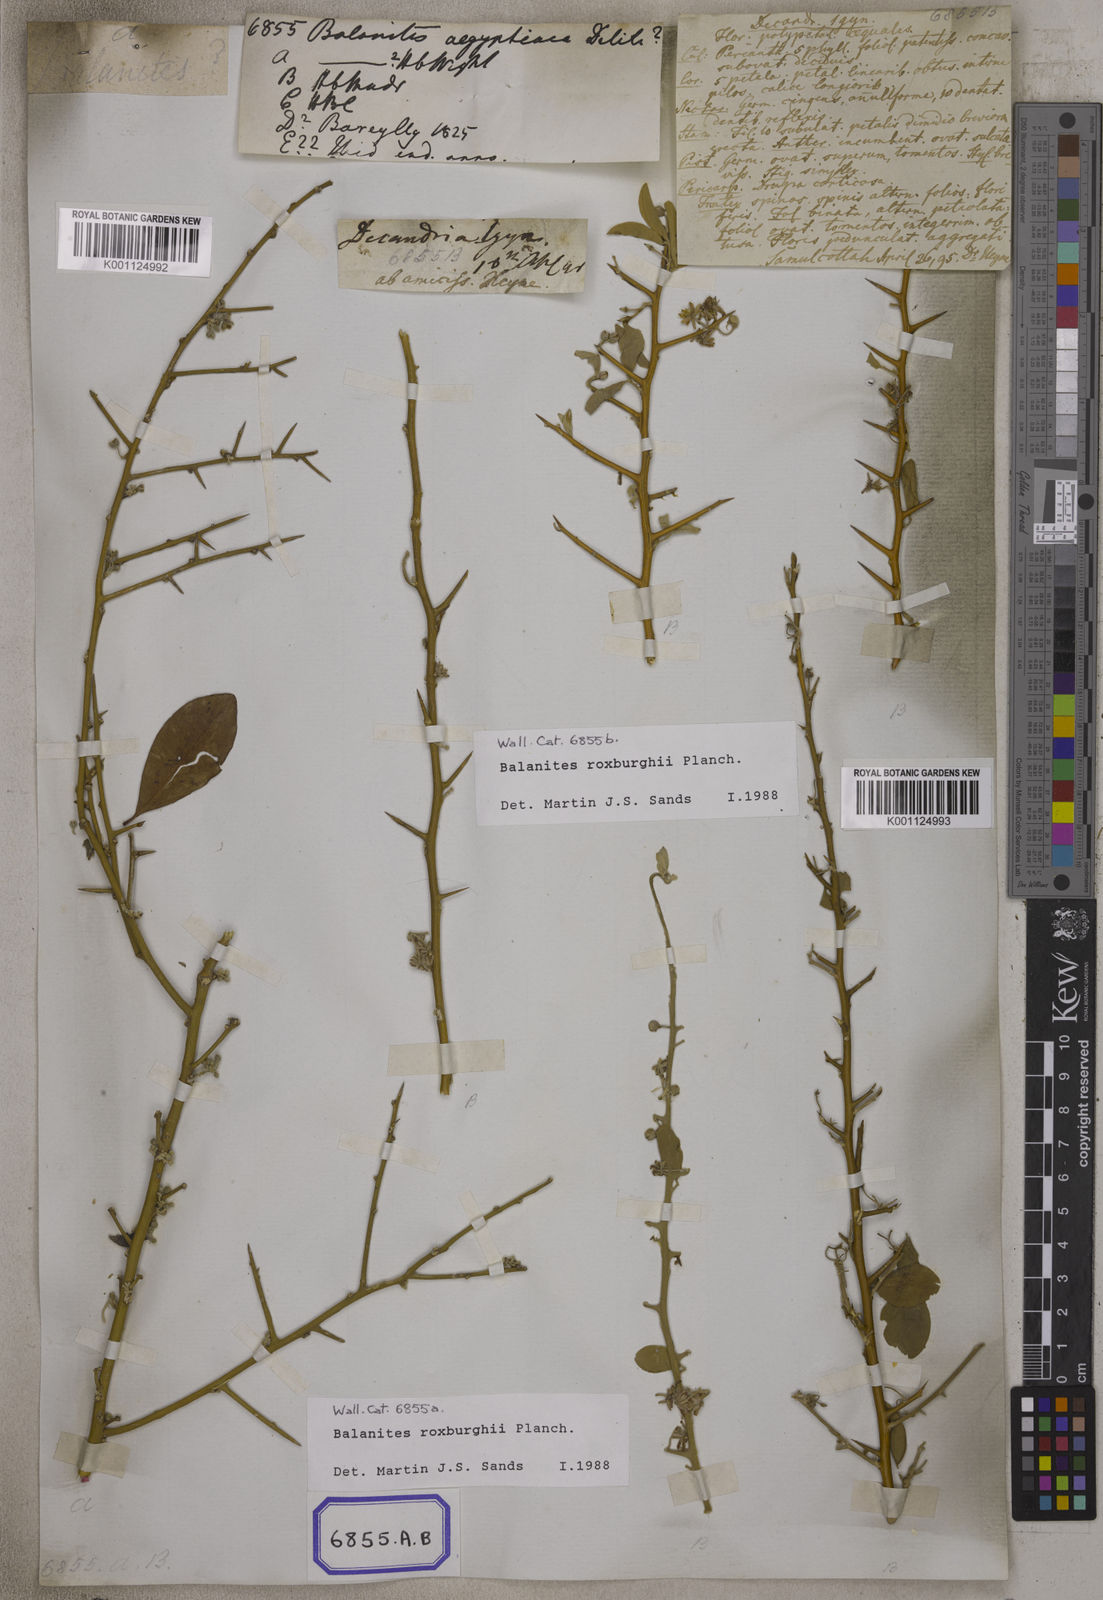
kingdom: Plantae
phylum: Tracheophyta
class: Magnoliopsida
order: Zygophyllales
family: Zygophyllaceae
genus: Balanites
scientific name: Balanites aegyptiaca
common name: Balanites
